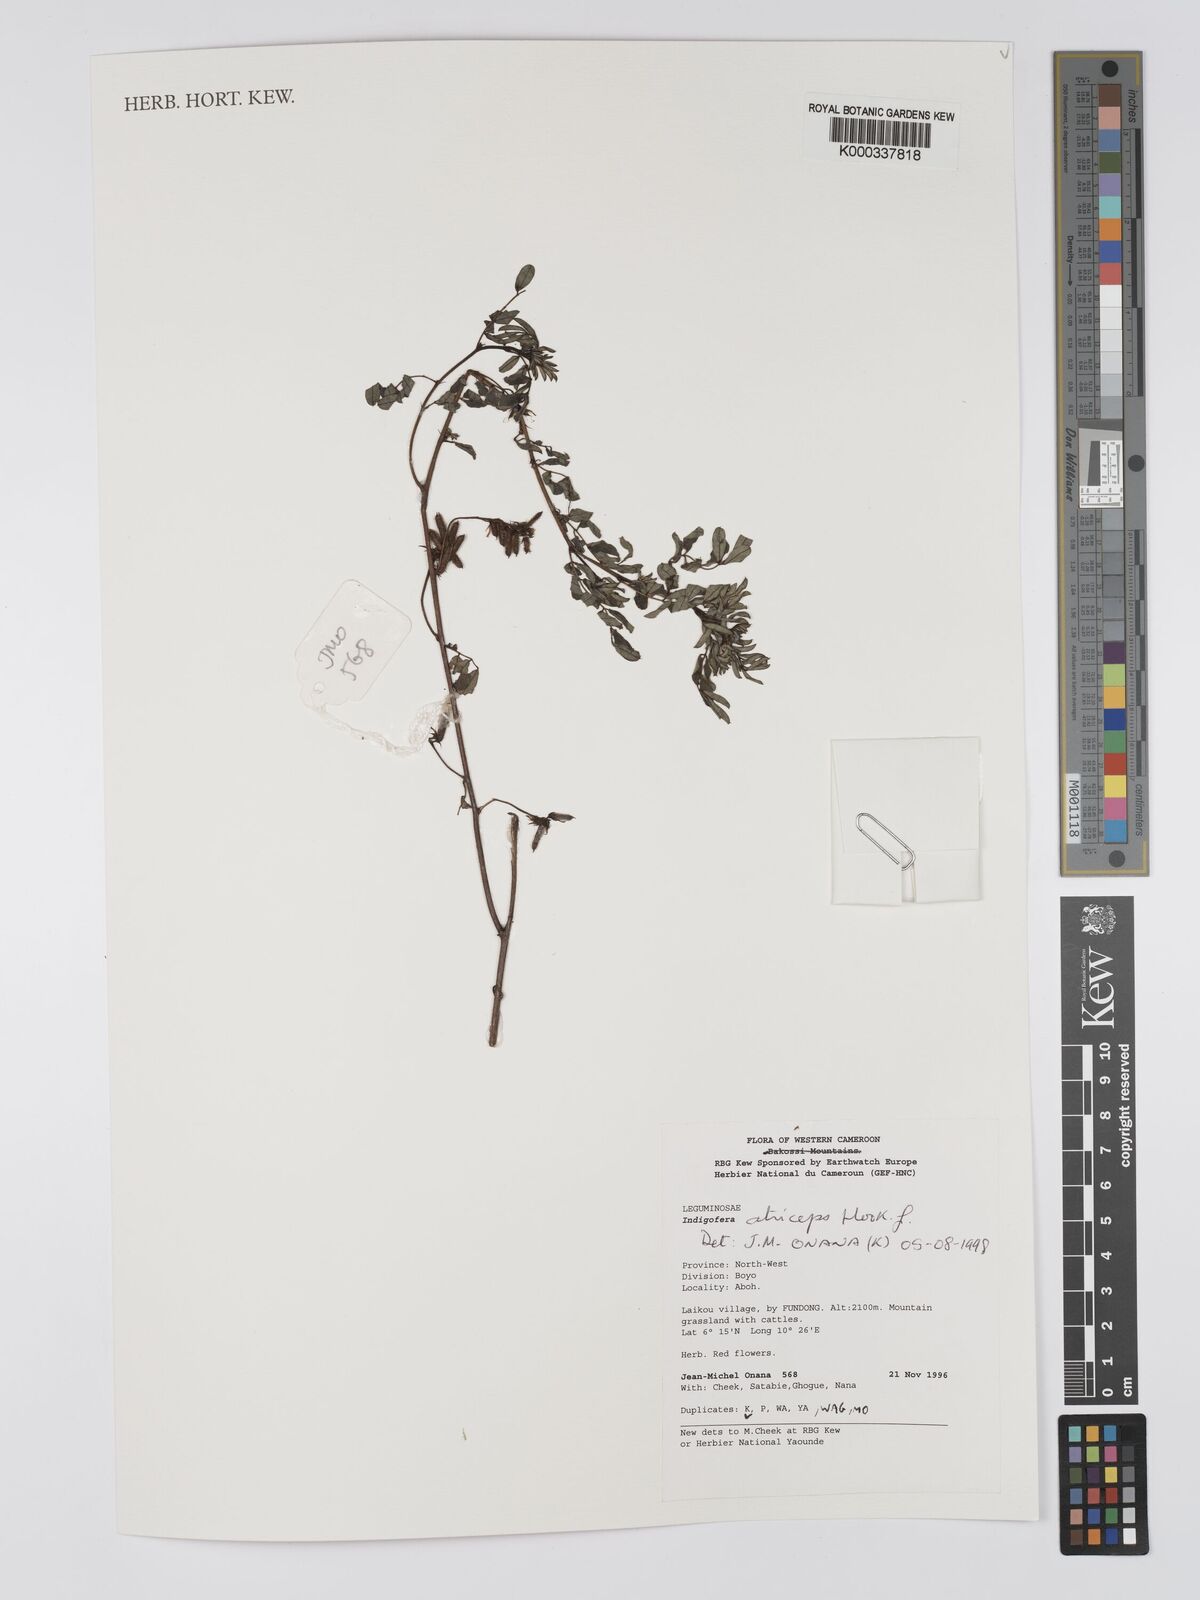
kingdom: Plantae
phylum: Tracheophyta
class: Magnoliopsida
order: Fabales
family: Fabaceae
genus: Indigofera
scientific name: Indigofera atriceps
